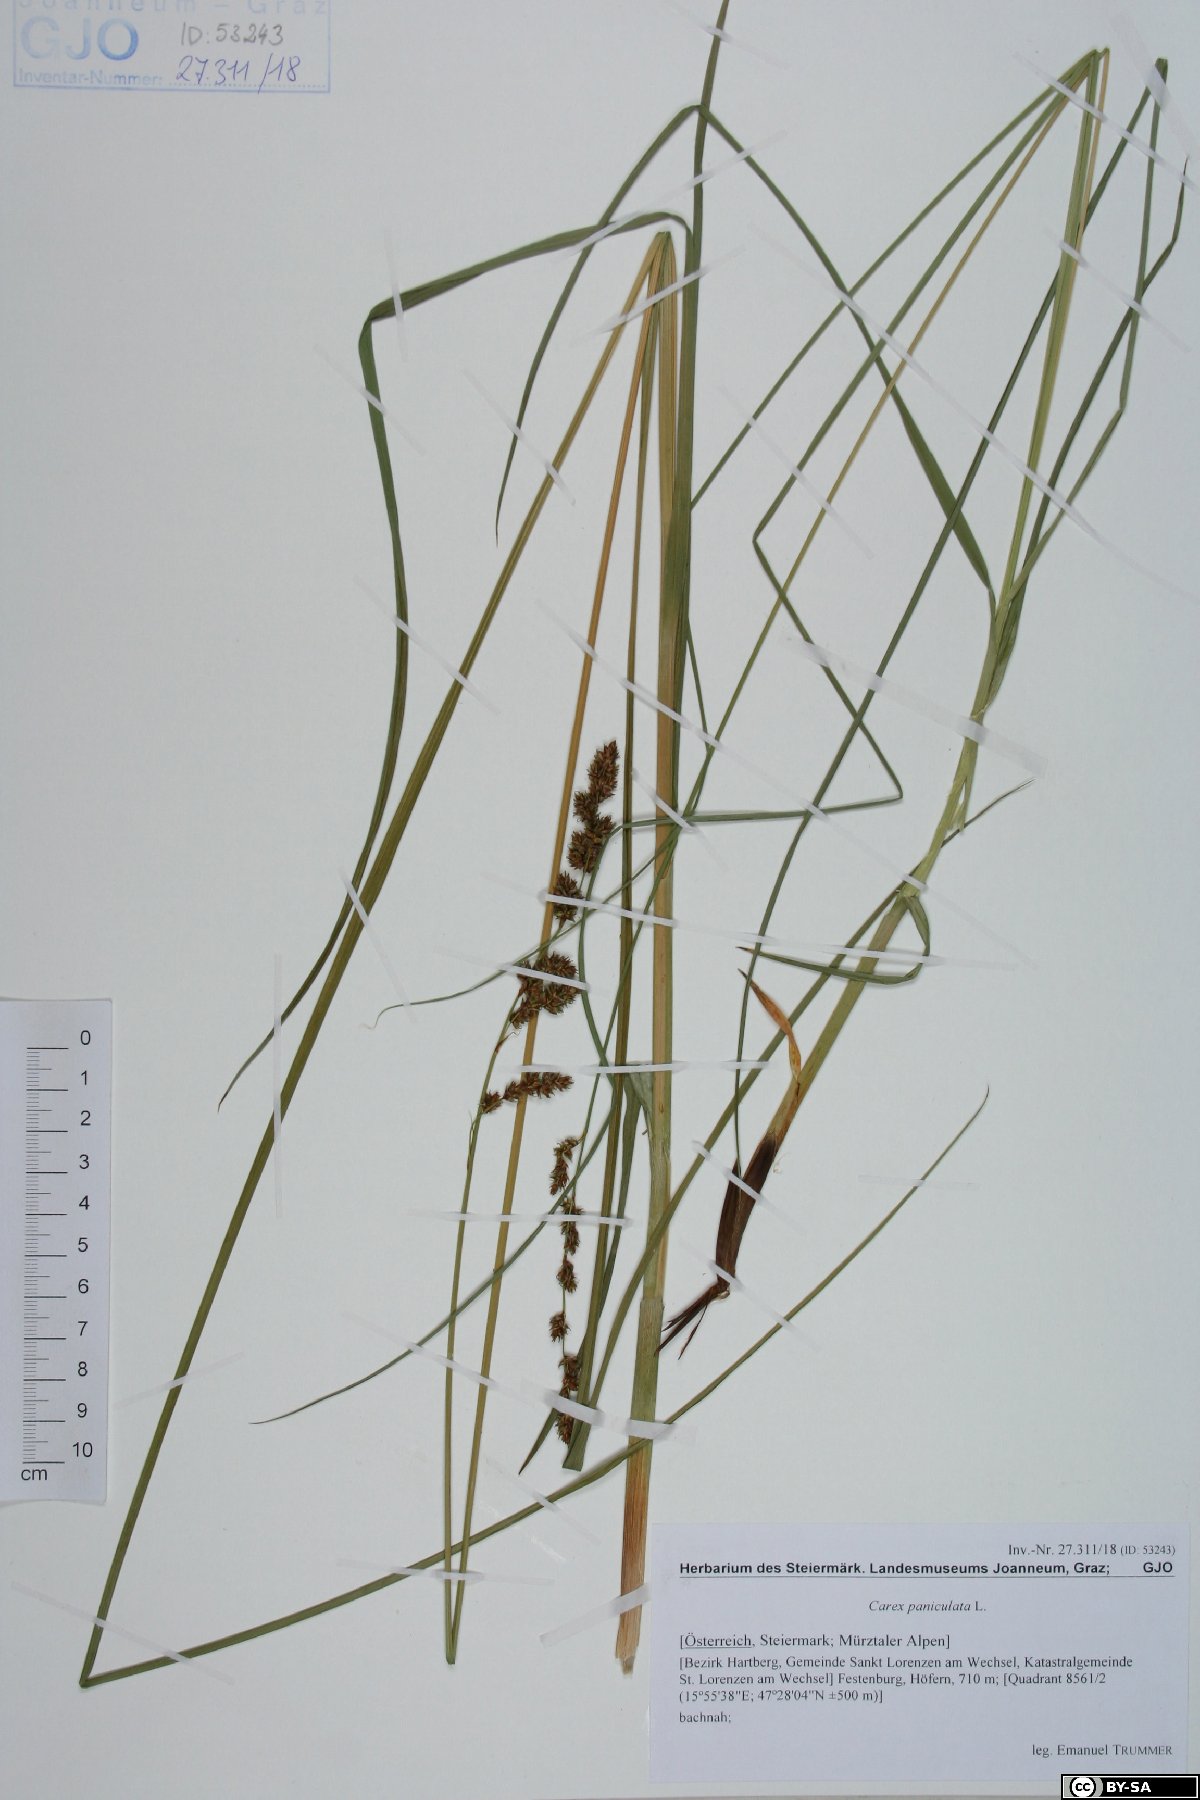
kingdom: Plantae
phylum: Tracheophyta
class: Liliopsida
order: Poales
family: Cyperaceae
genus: Carex
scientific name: Carex paniculata
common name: Greater tussock-sedge
